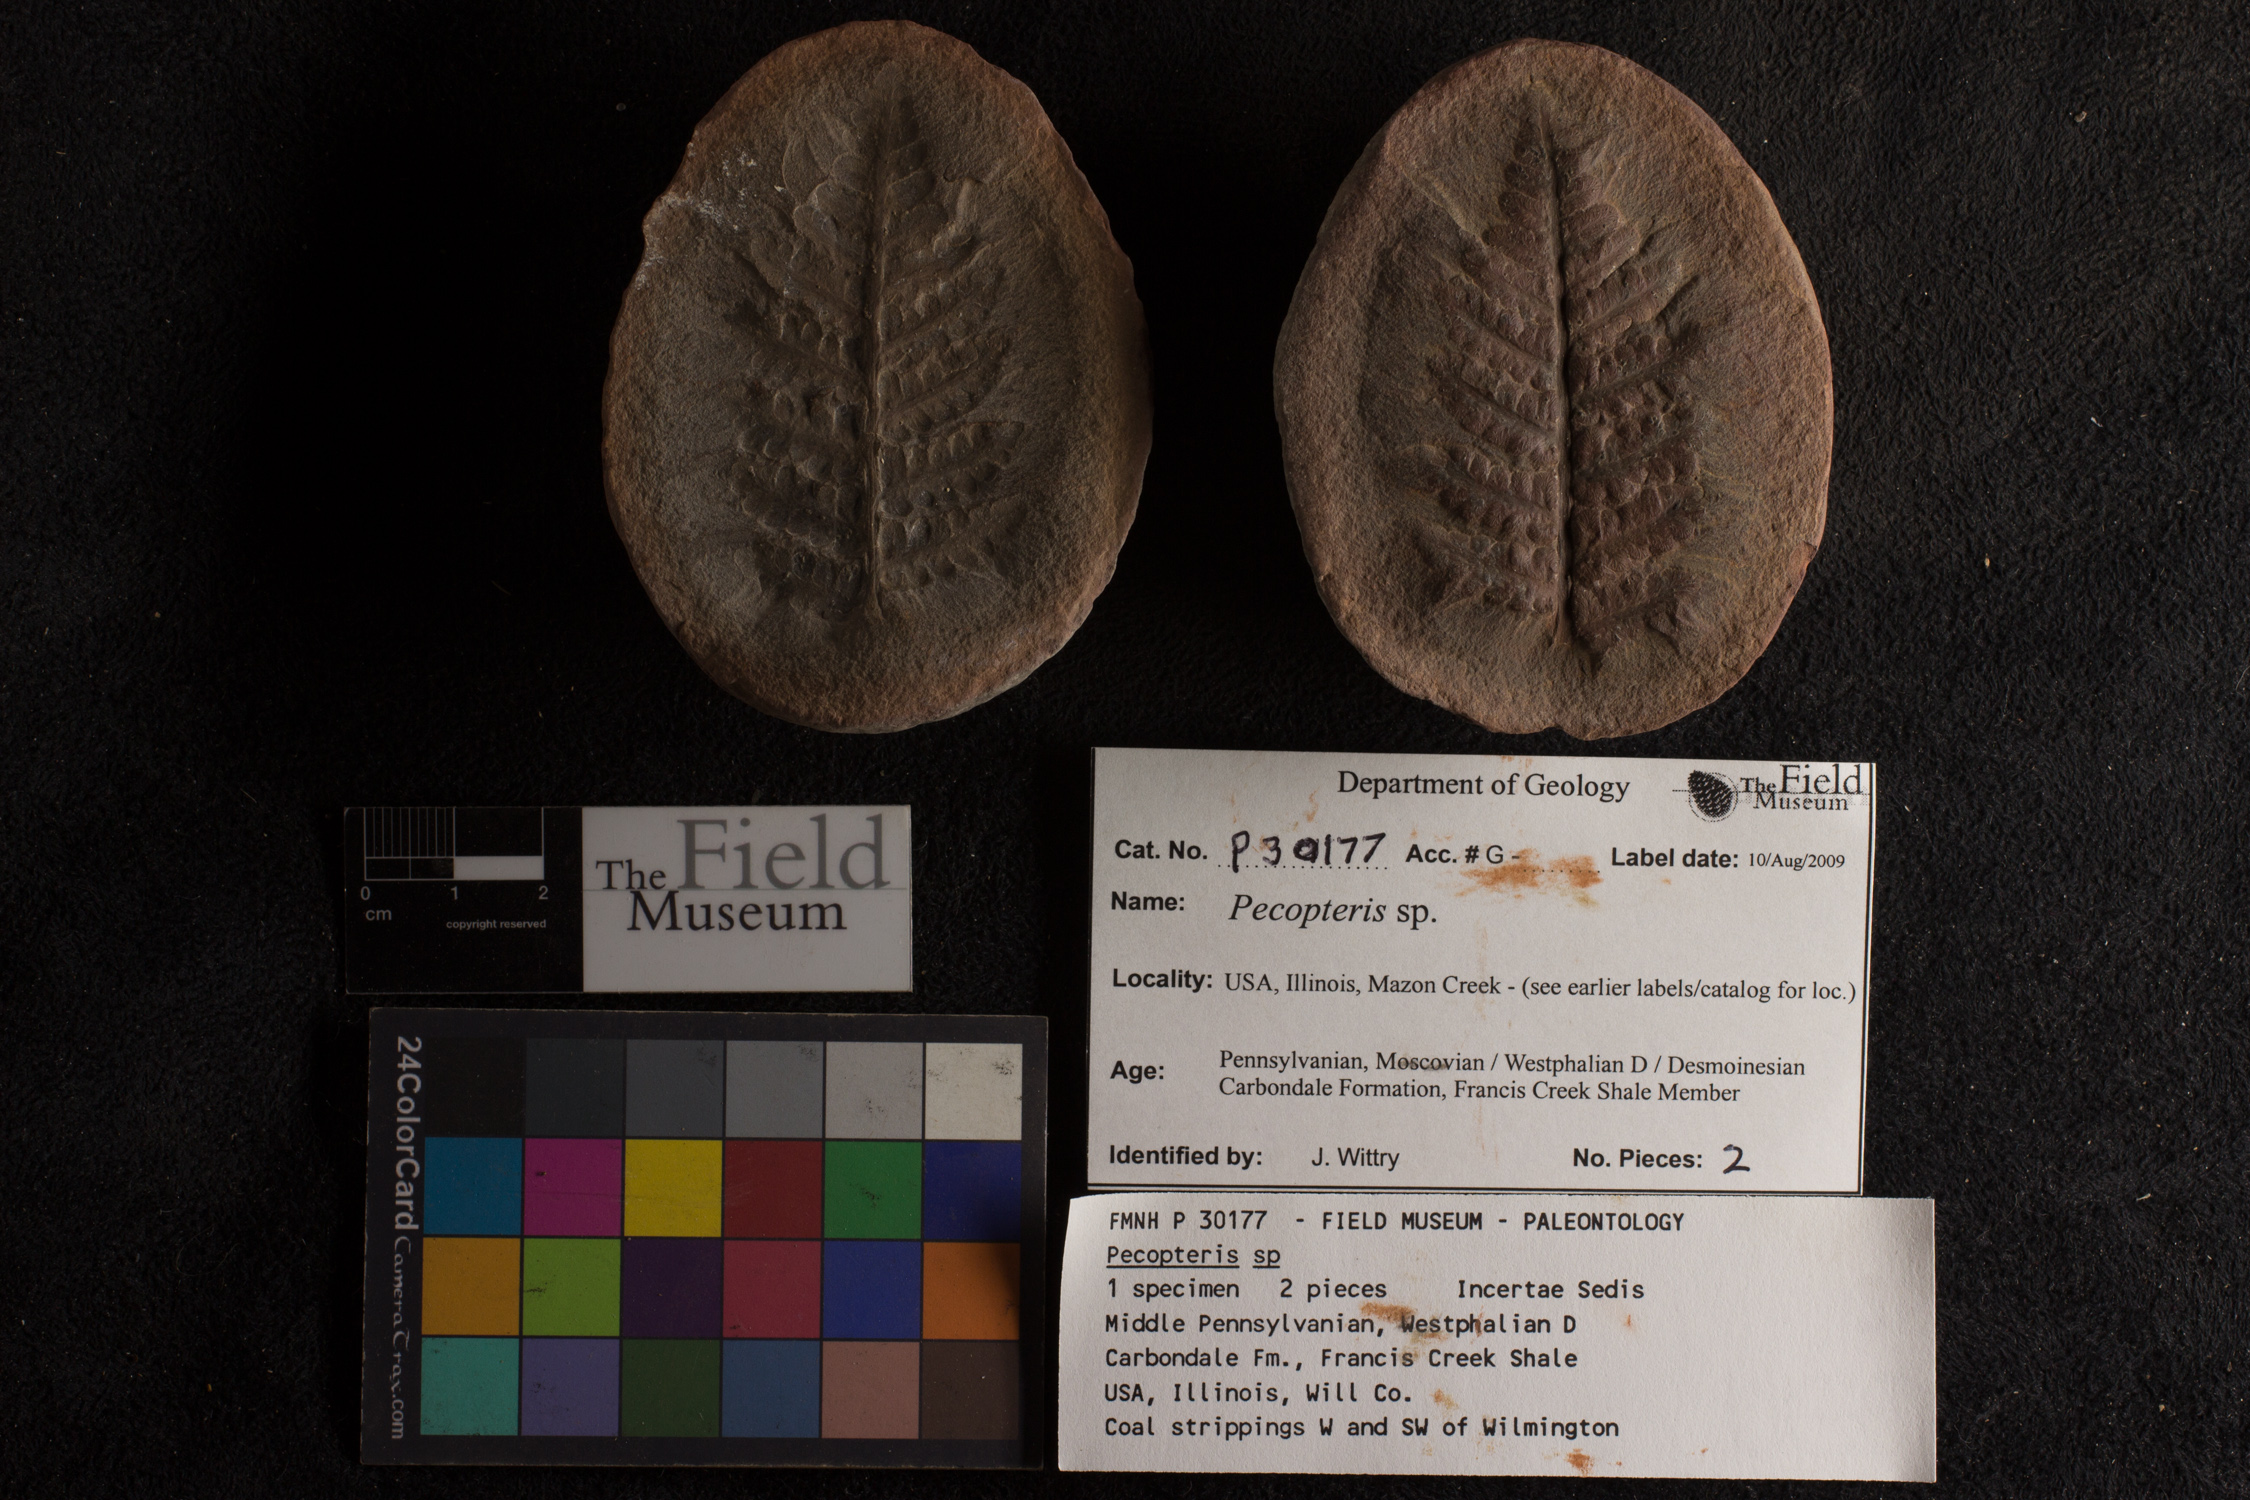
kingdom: Plantae
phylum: Tracheophyta
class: Polypodiopsida
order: Marattiales
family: Asterothecaceae
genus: Pecopteris
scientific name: Pecopteris
